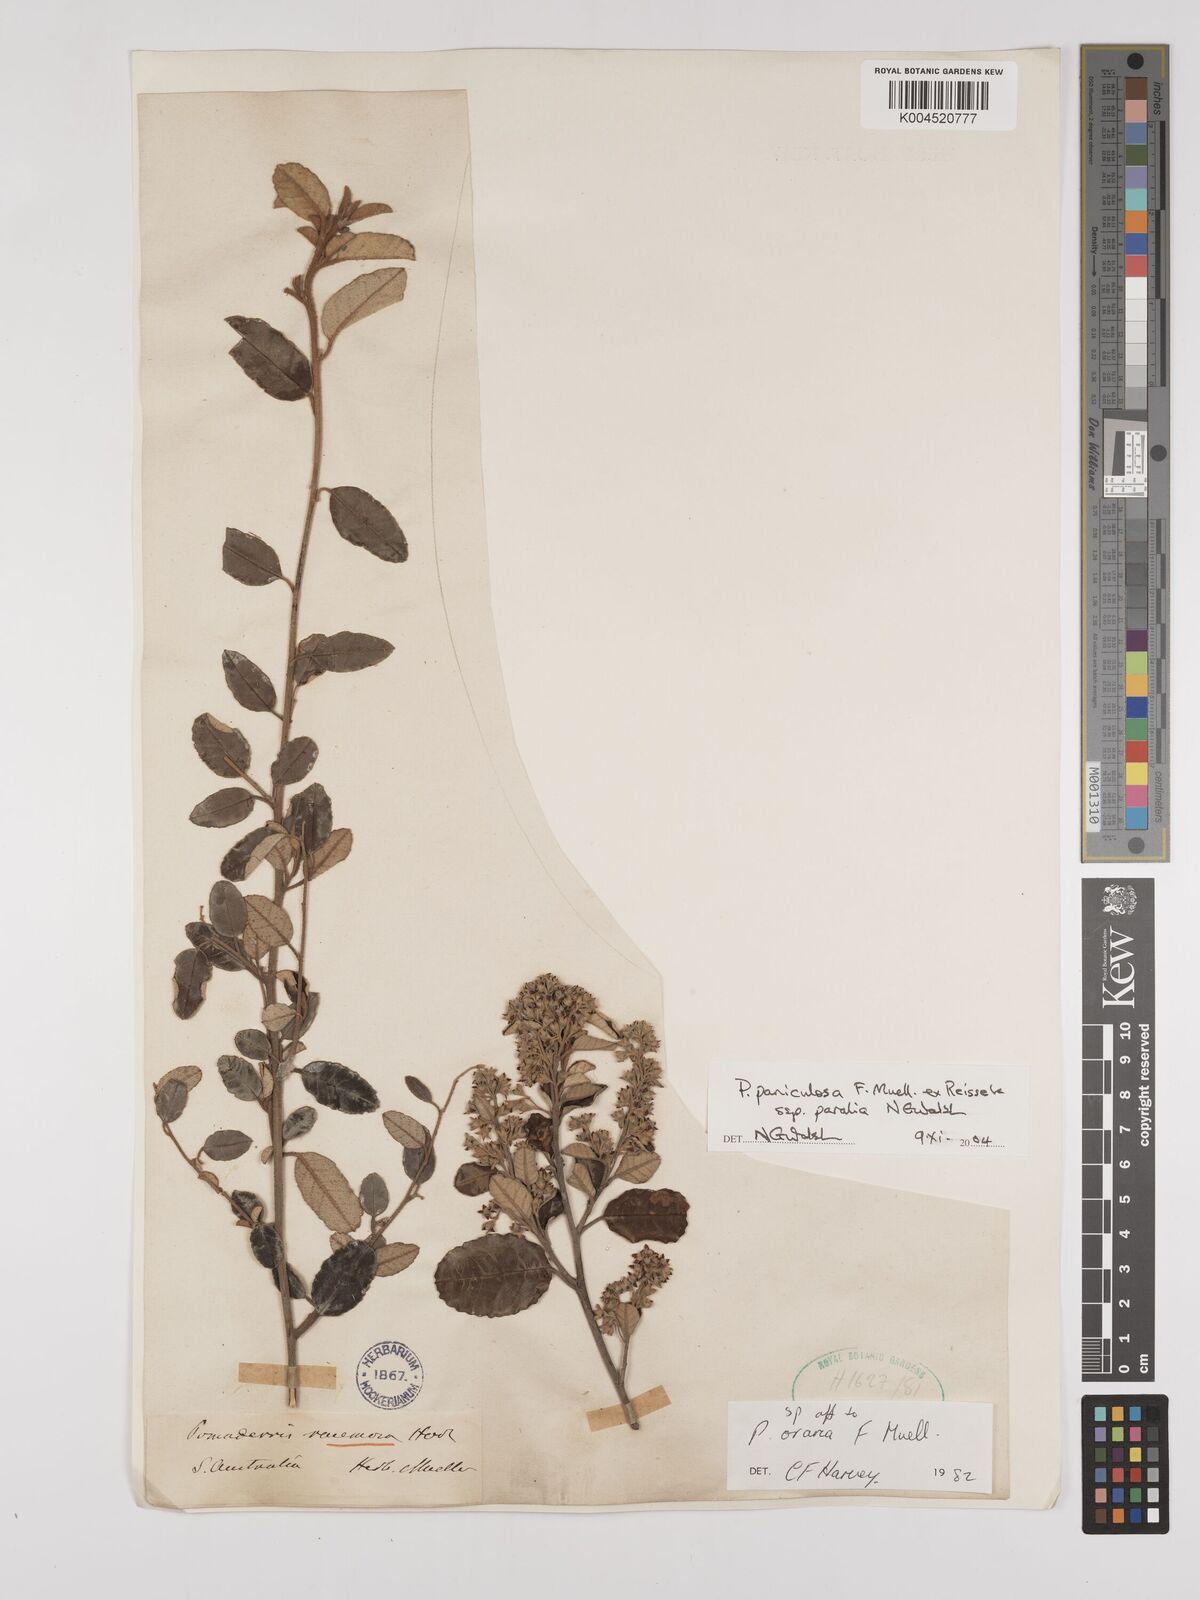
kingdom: Plantae
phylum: Tracheophyta
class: Magnoliopsida
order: Rosales
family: Rhamnaceae
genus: Pomaderris
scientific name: Pomaderris paniculosa
